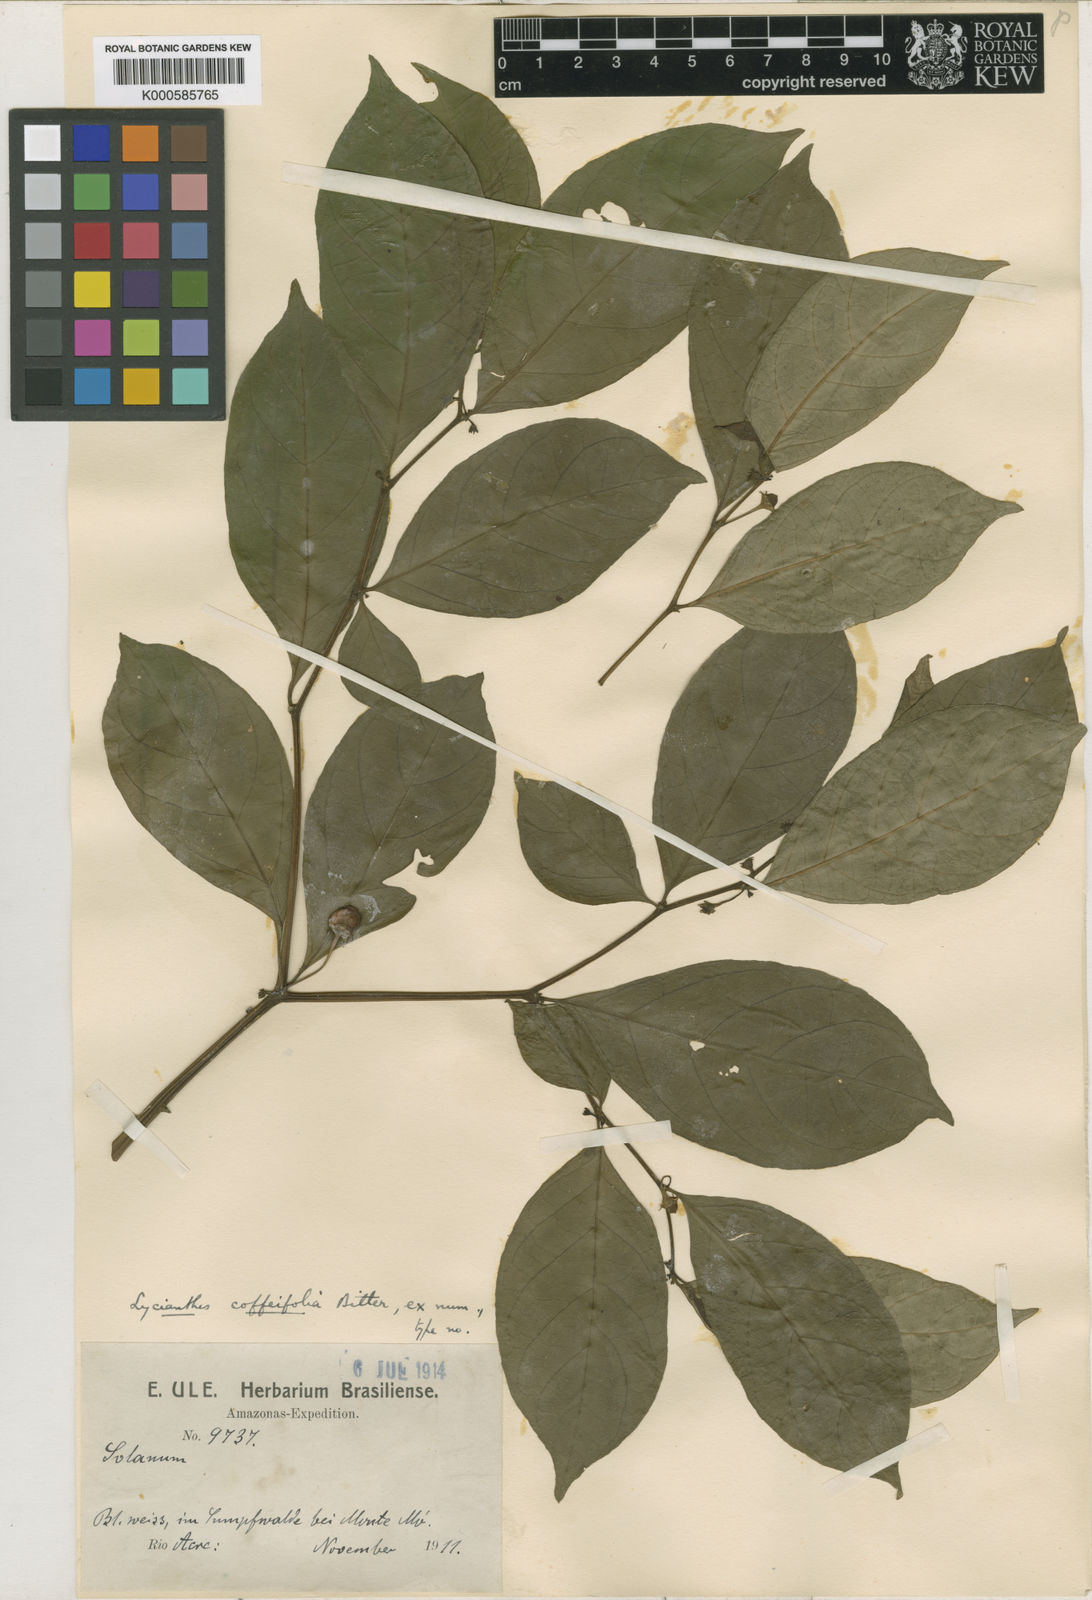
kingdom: Plantae
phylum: Tracheophyta
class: Magnoliopsida
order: Solanales
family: Solanaceae
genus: Lycianthes
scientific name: Lycianthes coffeifolia
